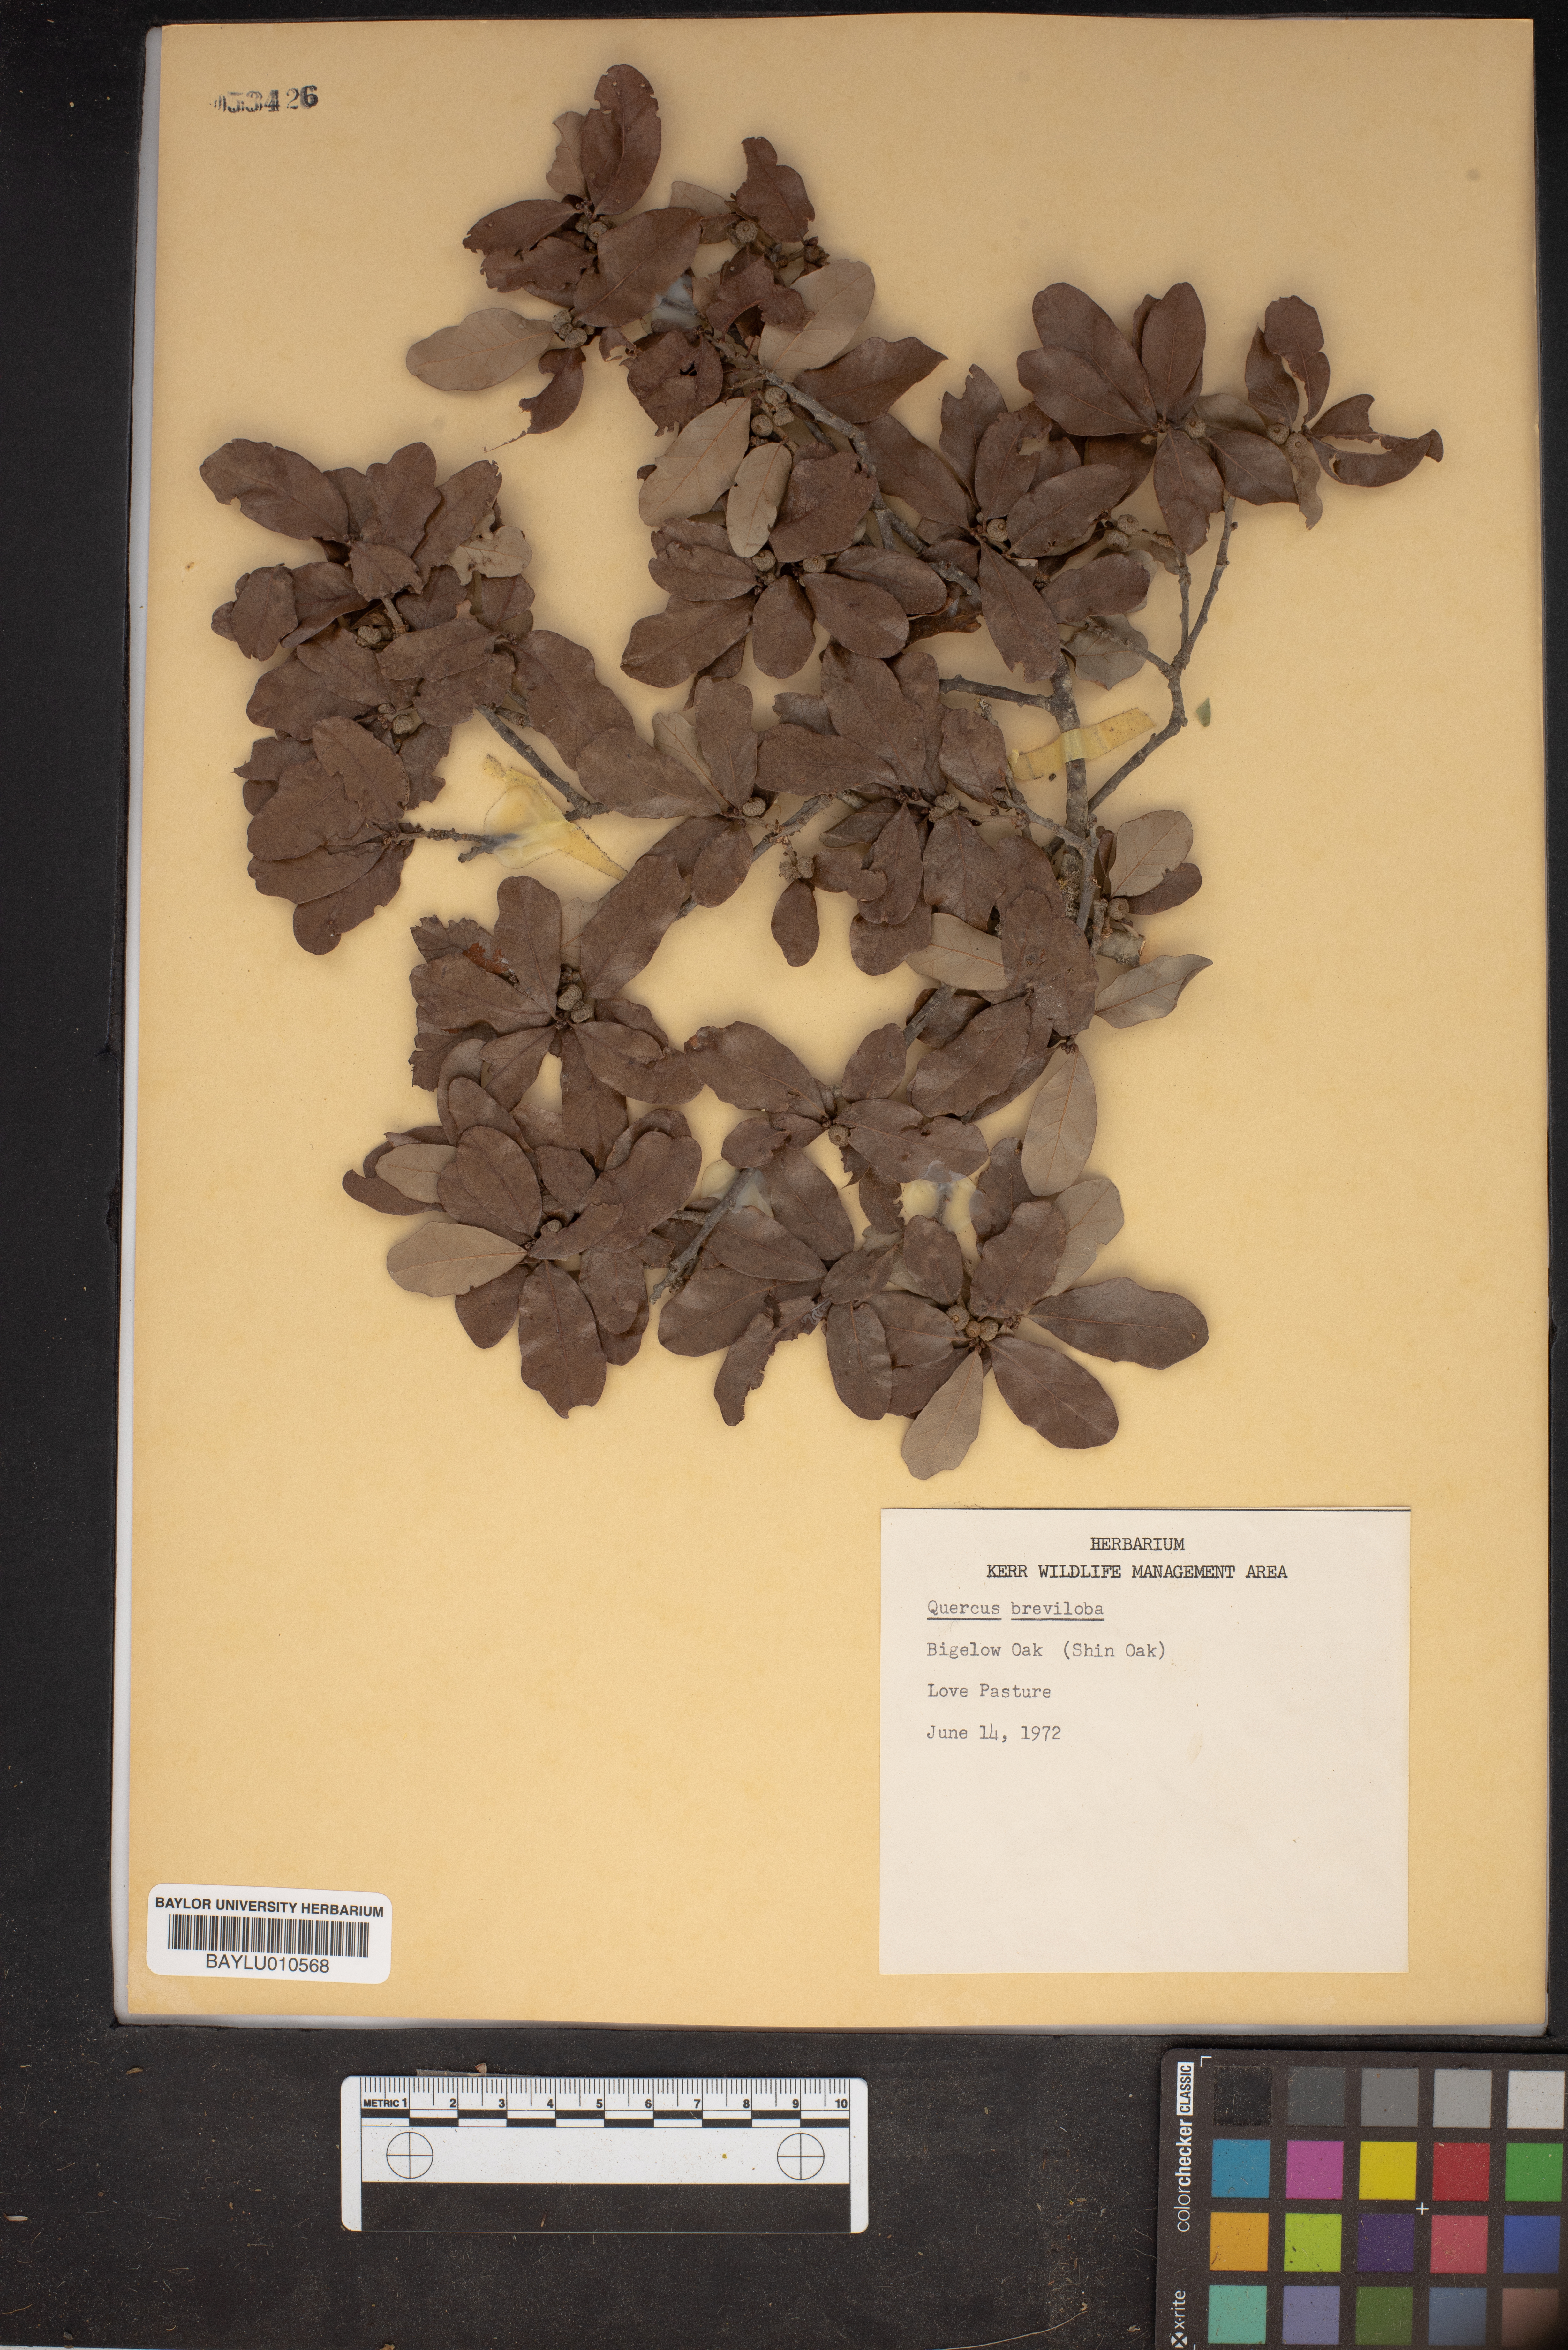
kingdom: Plantae
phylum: Tracheophyta
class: Magnoliopsida
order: Fagales
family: Fagaceae
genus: Quercus
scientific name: Quercus sinuata
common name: Durand oak
